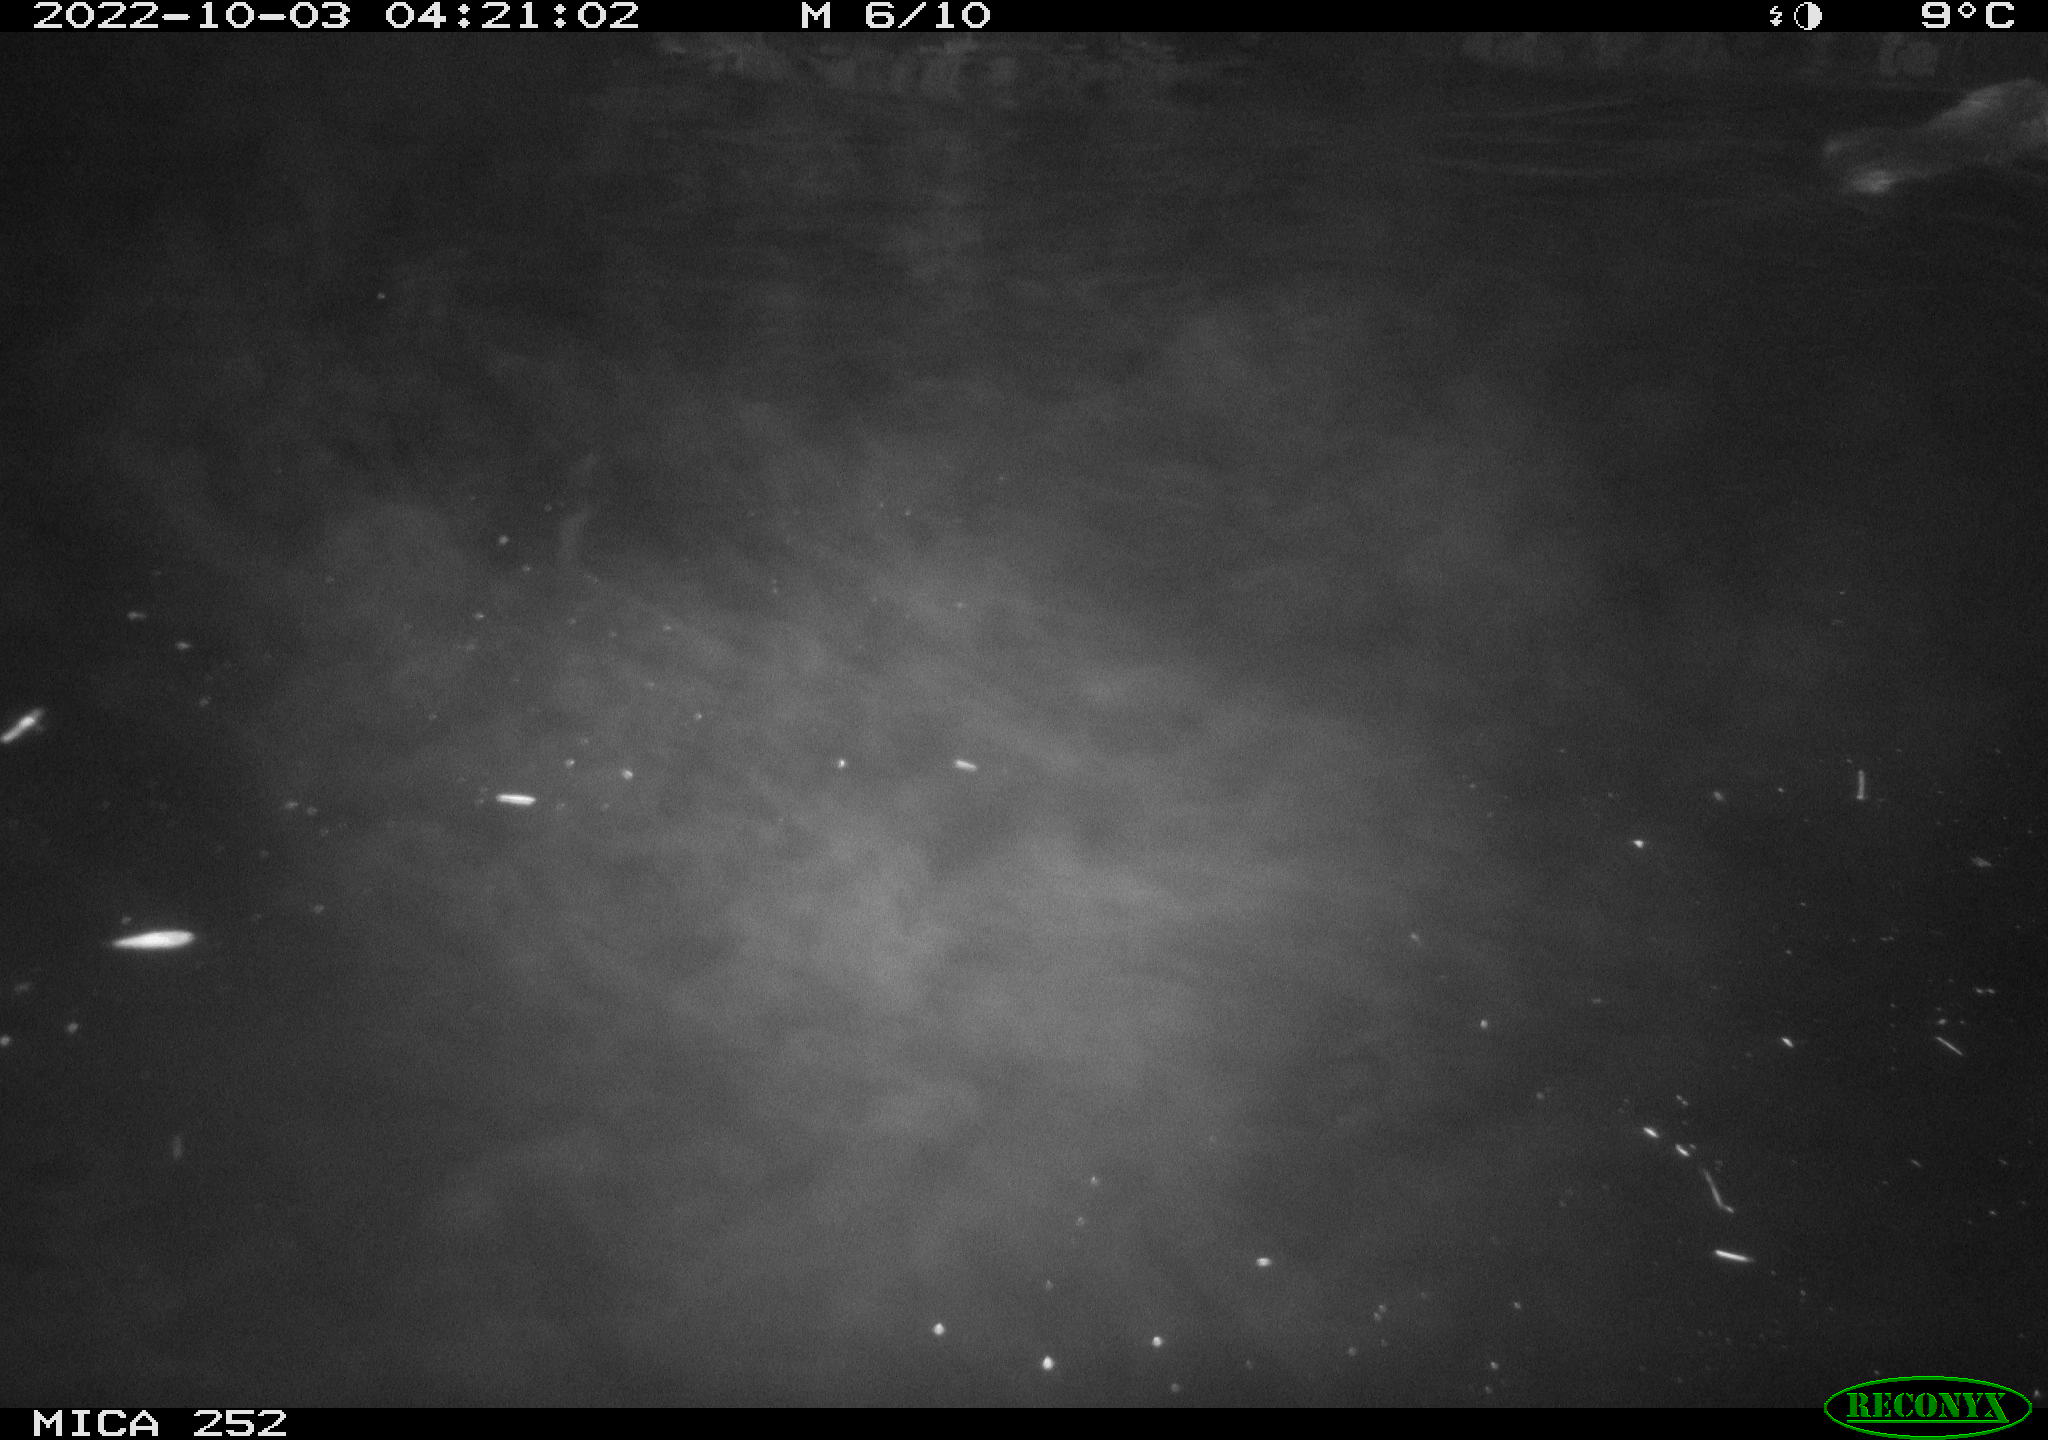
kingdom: Animalia
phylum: Chordata
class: Mammalia
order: Rodentia
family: Castoridae
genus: Castor
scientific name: Castor fiber
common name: Eurasian beaver
